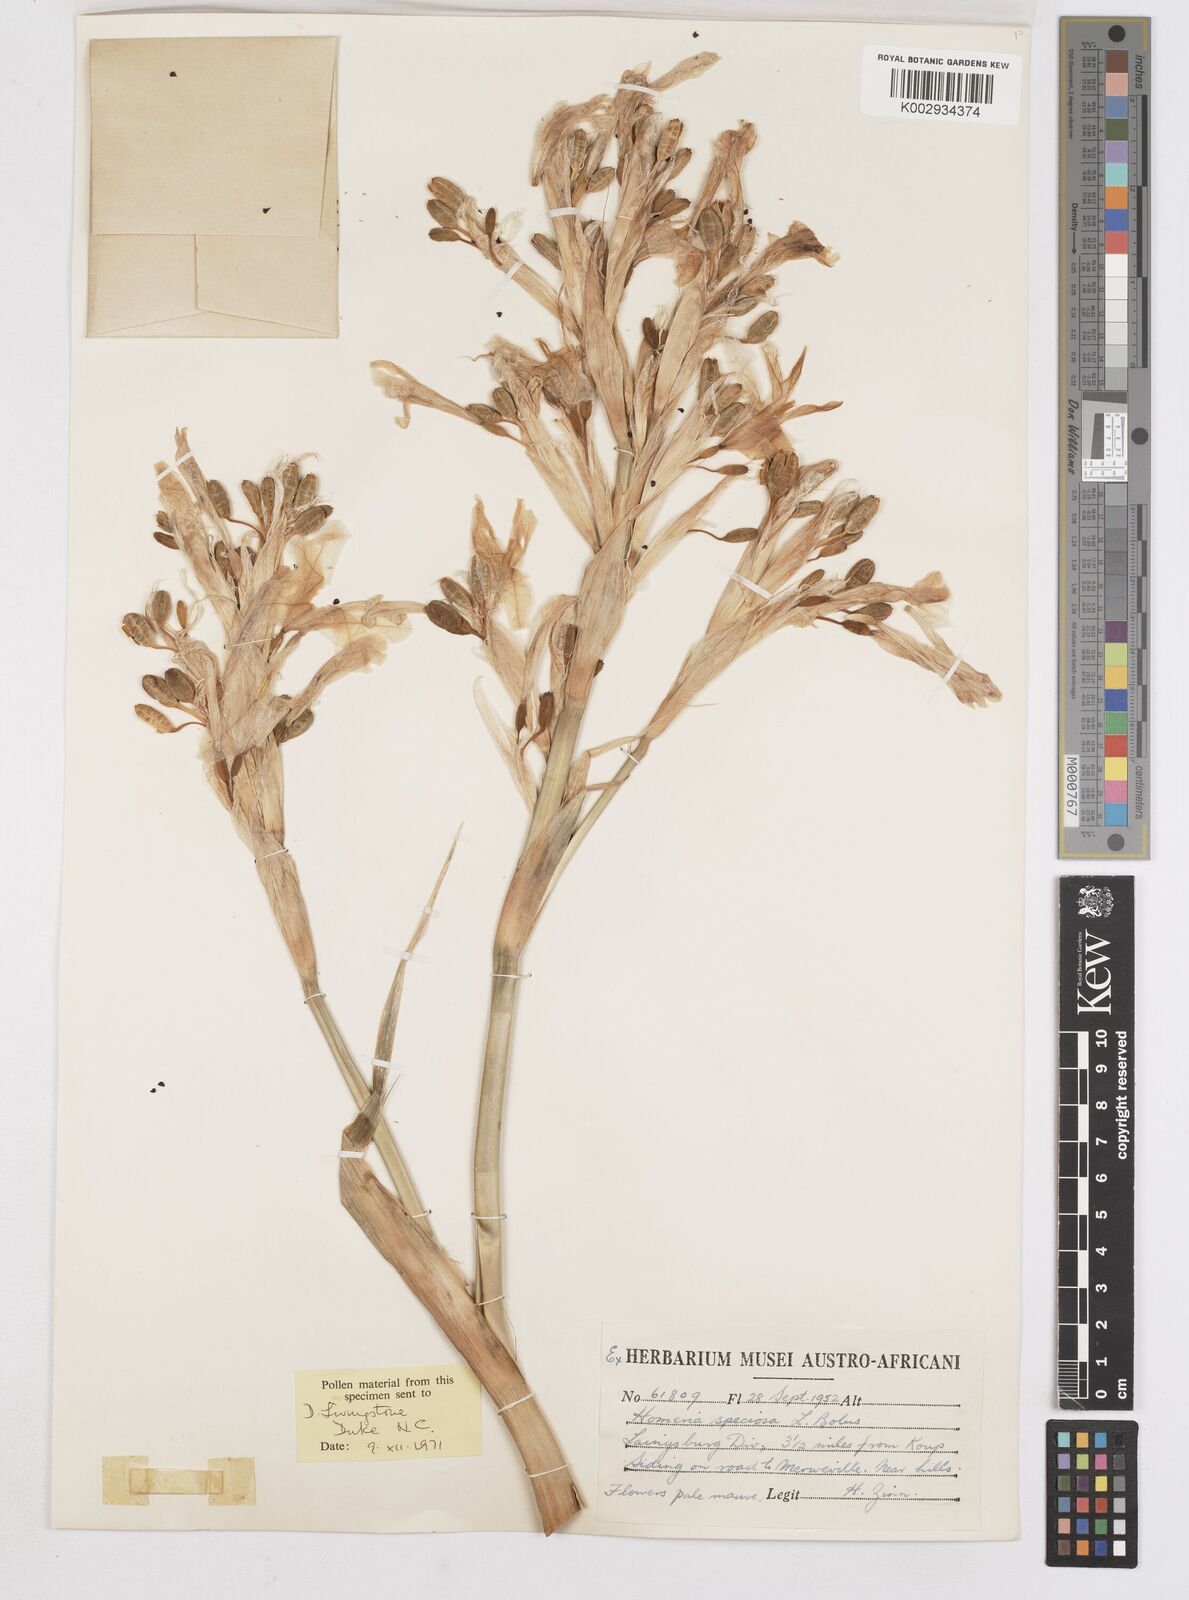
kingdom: Plantae
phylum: Tracheophyta
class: Liliopsida
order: Asparagales
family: Iridaceae
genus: Moraea
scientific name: Moraea speciosa
